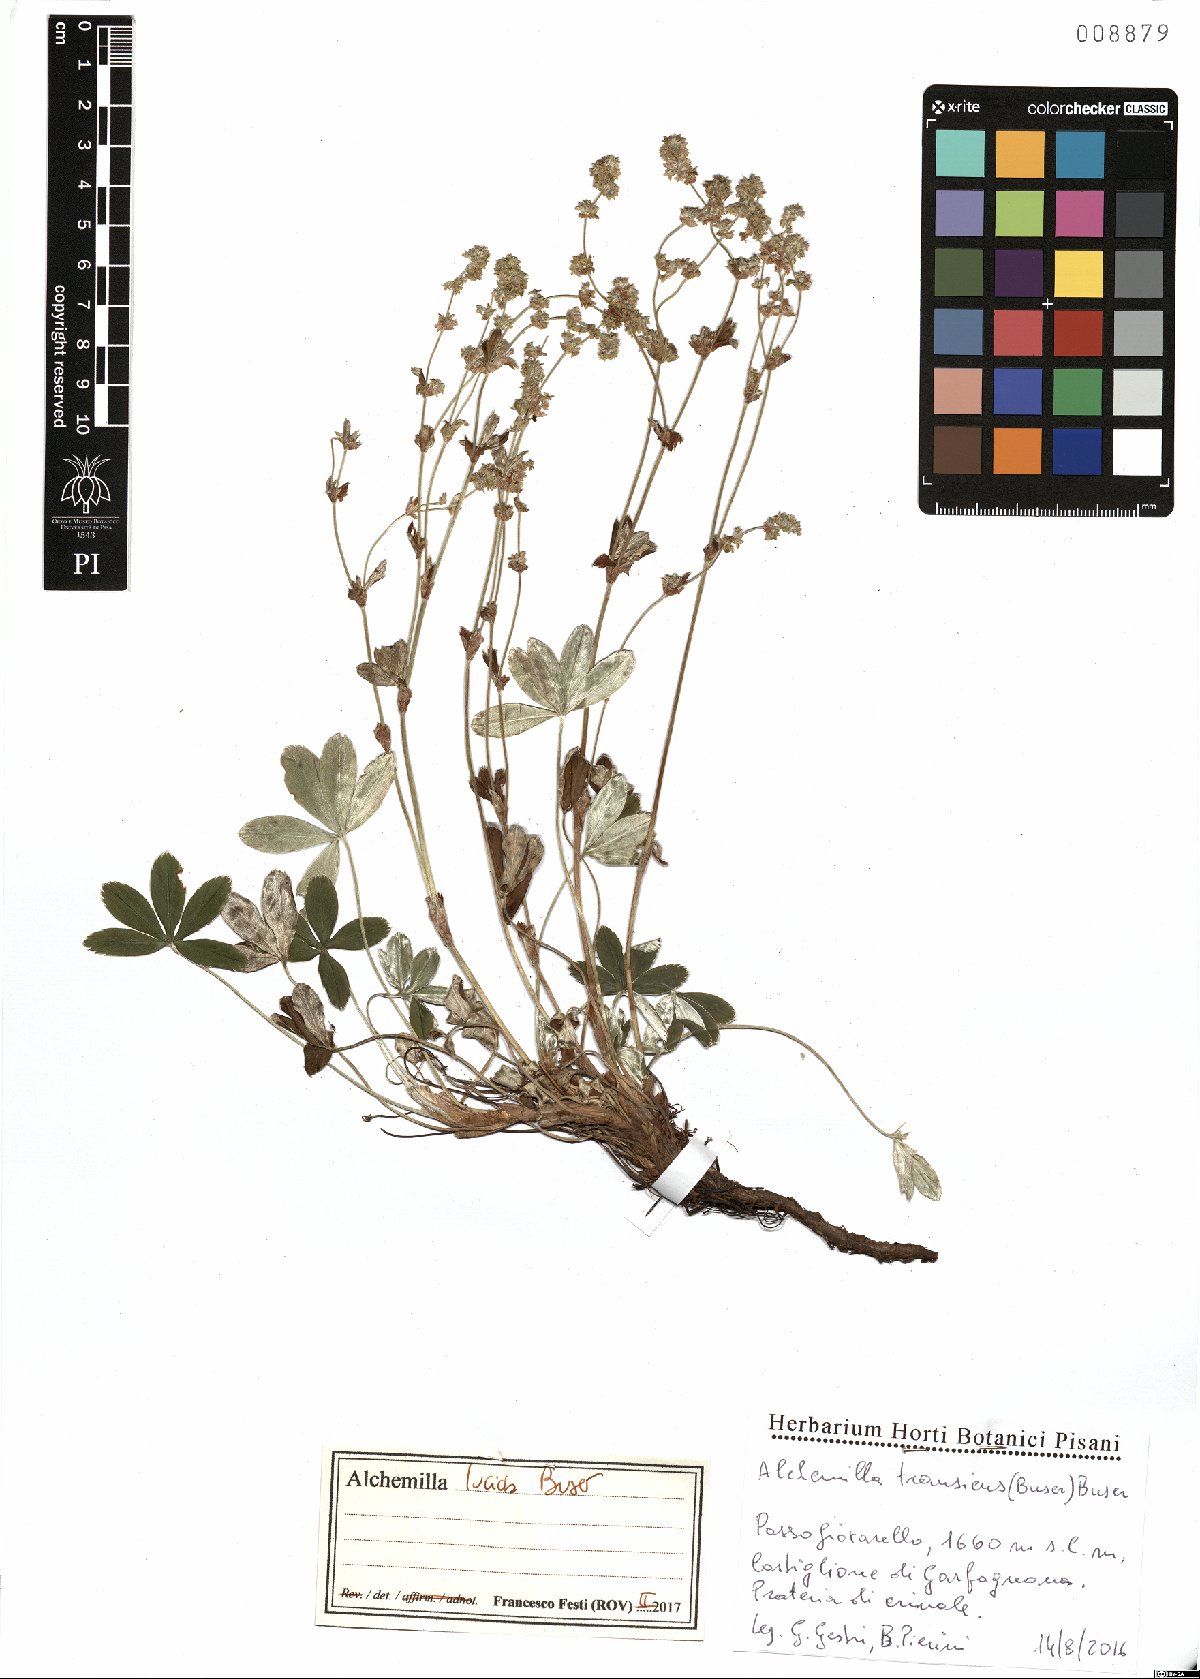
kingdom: Plantae
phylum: Tracheophyta
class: Magnoliopsida
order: Rosales
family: Rosaceae
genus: Alchemilla
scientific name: Alchemilla lucida
